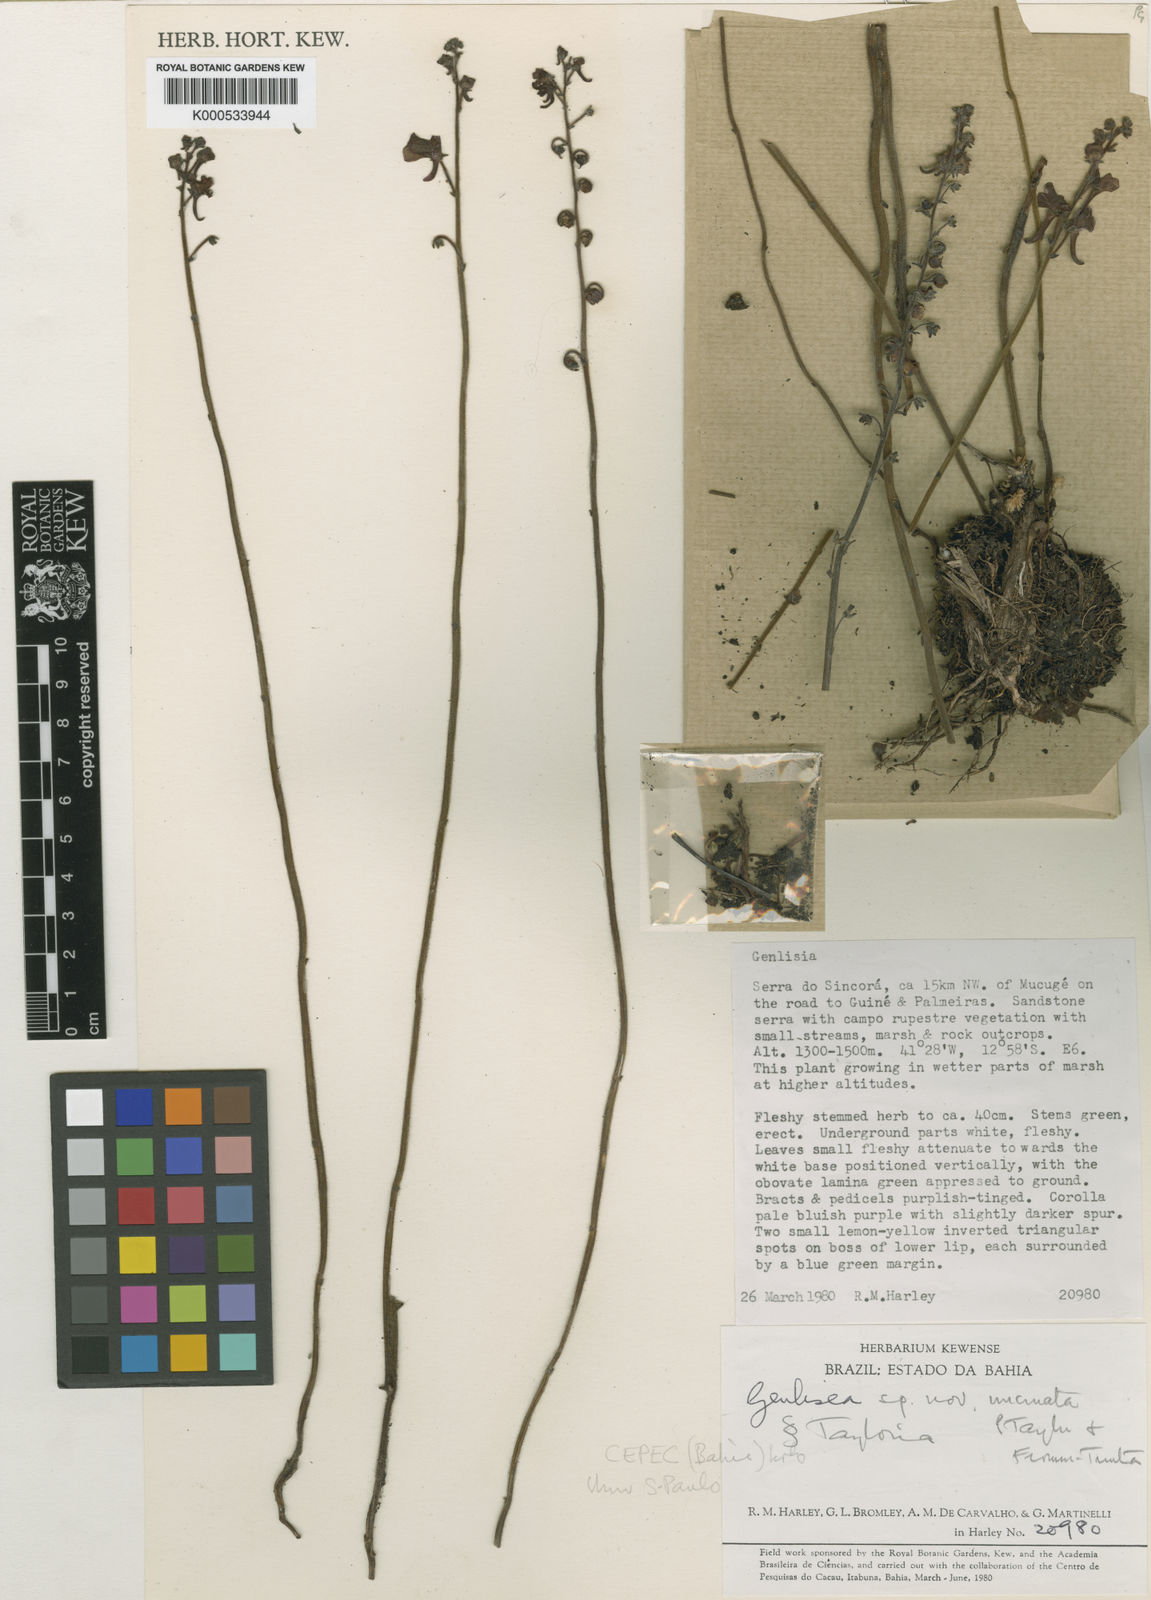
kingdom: Plantae
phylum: Tracheophyta
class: Magnoliopsida
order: Lamiales
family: Lentibulariaceae
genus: Genlisea
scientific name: Genlisea uncinata
